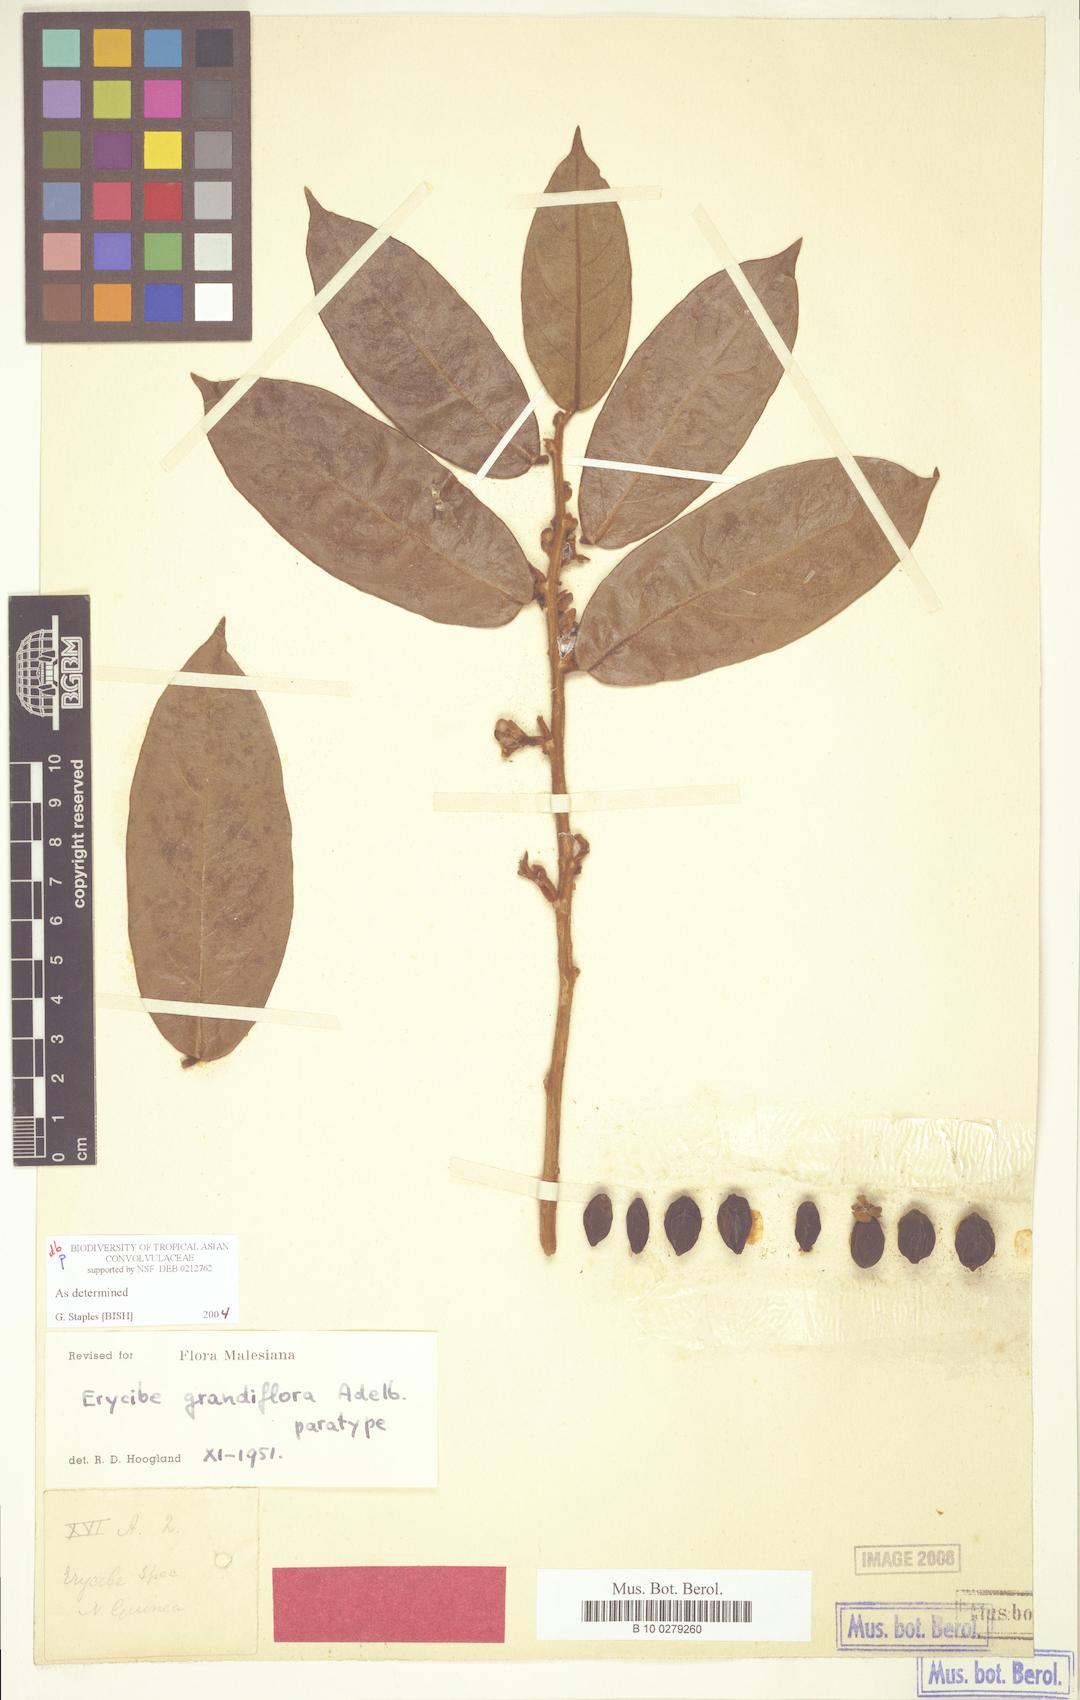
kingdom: Plantae
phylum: Tracheophyta
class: Magnoliopsida
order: Solanales
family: Convolvulaceae
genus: Erycibe
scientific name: Erycibe grandifolia
